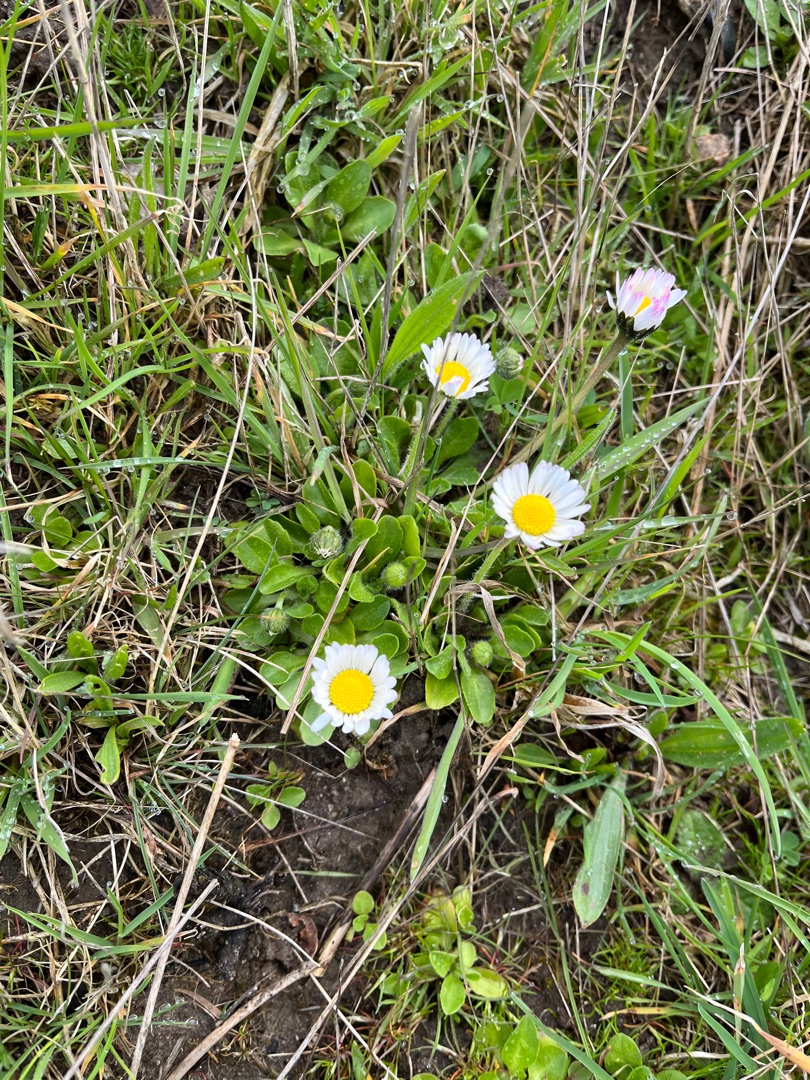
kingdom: Plantae
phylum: Tracheophyta
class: Magnoliopsida
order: Asterales
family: Asteraceae
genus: Bellis
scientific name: Bellis perennis
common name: Tusindfryd
